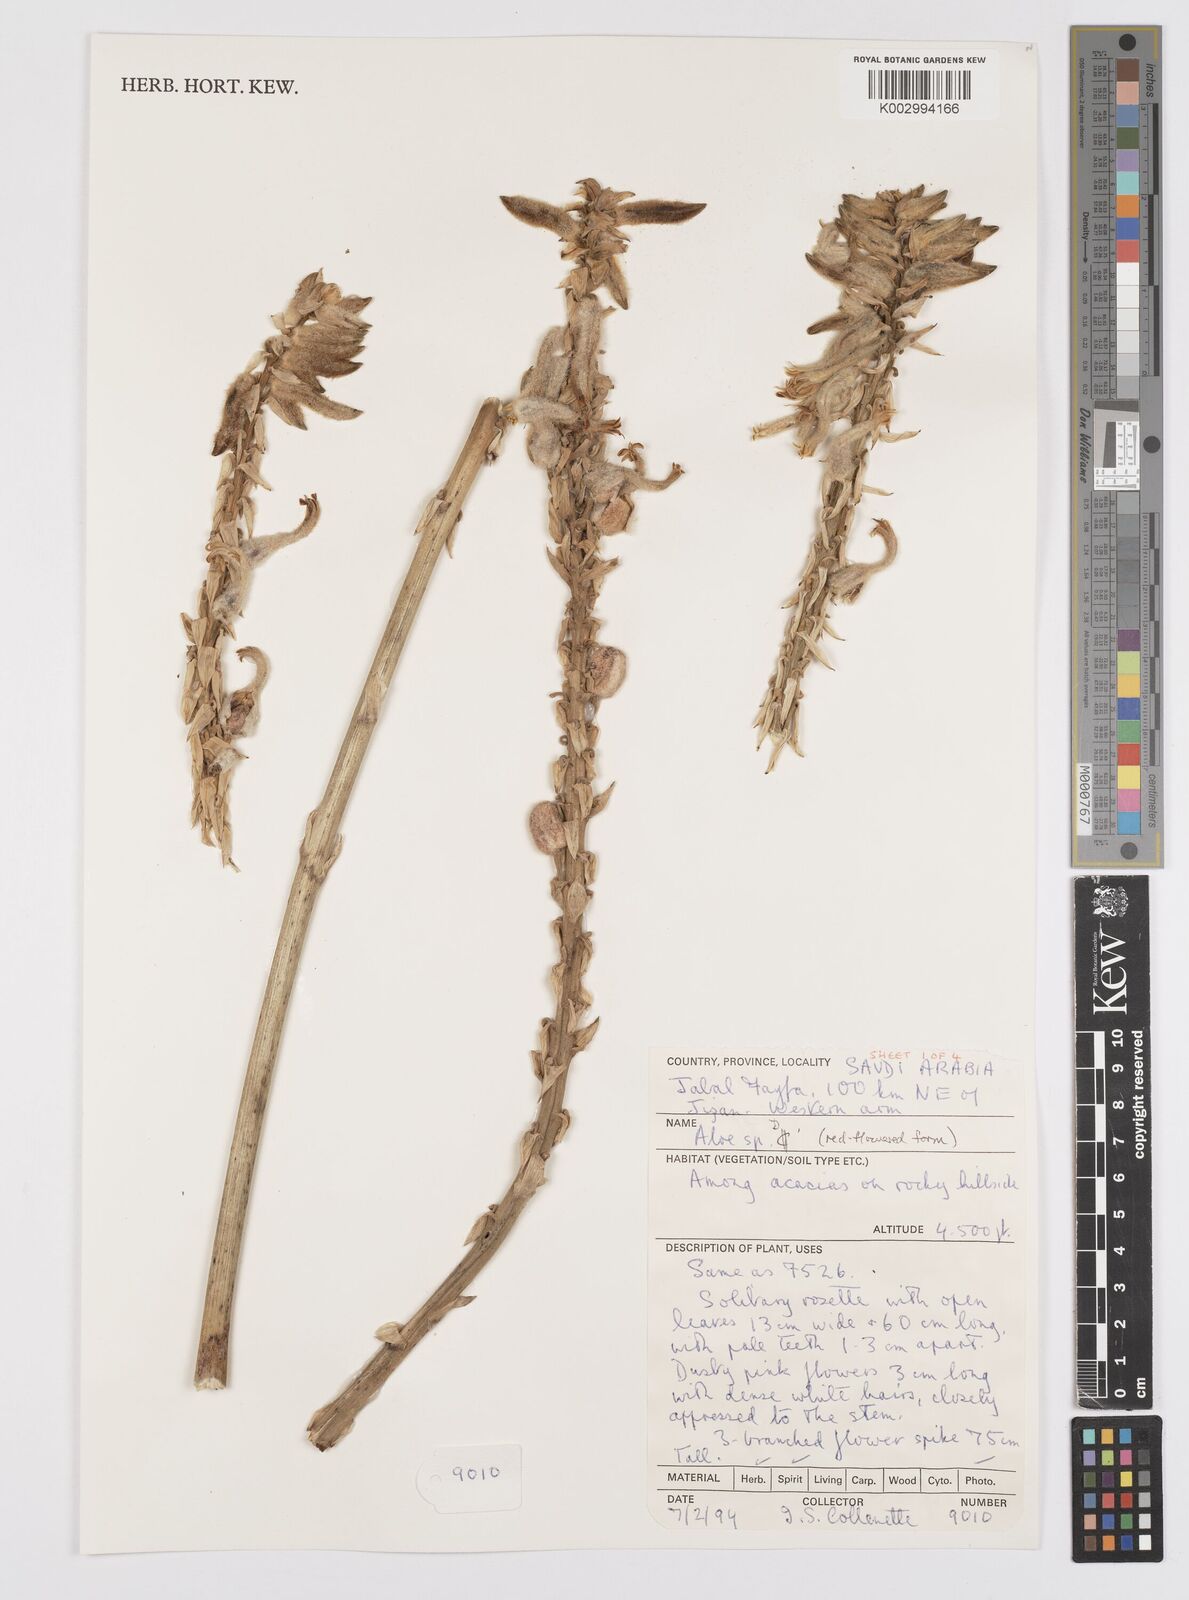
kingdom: Plantae
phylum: Tracheophyta
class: Liliopsida
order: Asparagales
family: Asphodelaceae
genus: Aloe
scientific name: Aloe parvicapsula
